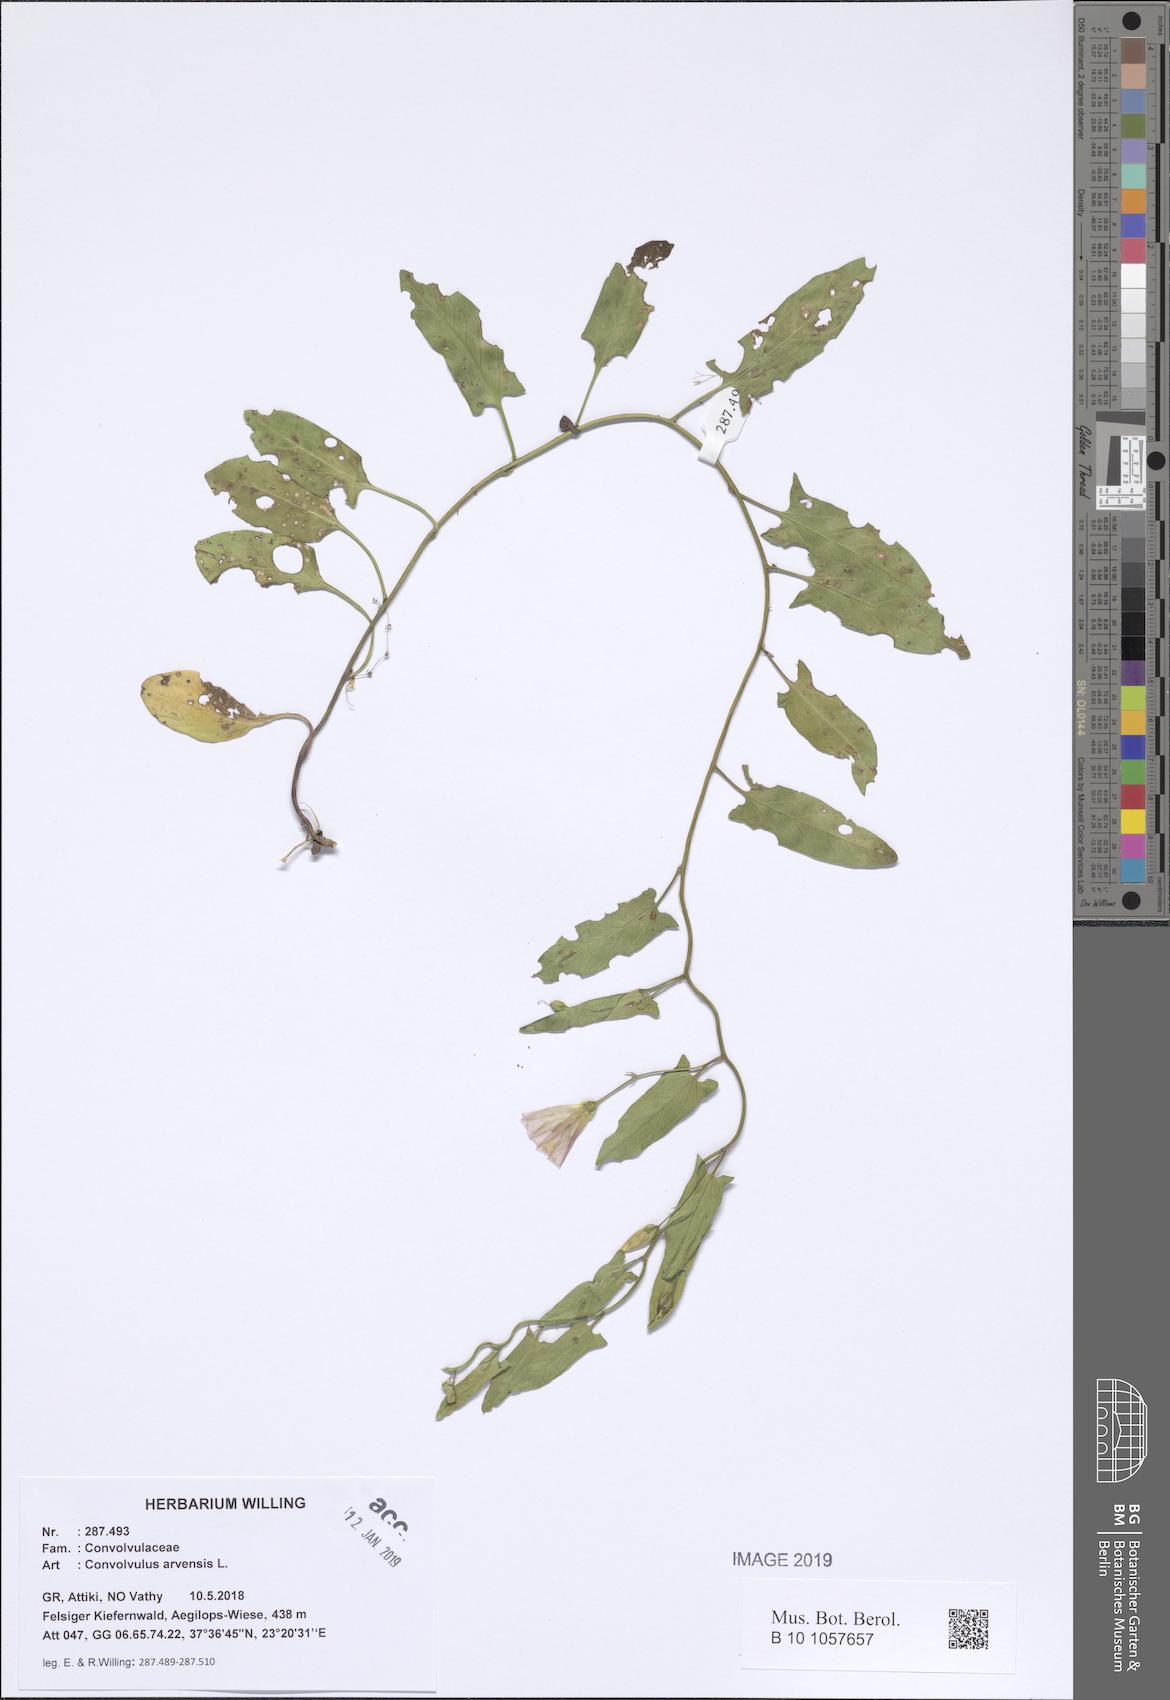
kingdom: Plantae
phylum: Tracheophyta
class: Magnoliopsida
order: Solanales
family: Convolvulaceae
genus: Convolvulus
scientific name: Convolvulus arvensis
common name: Field bindweed
